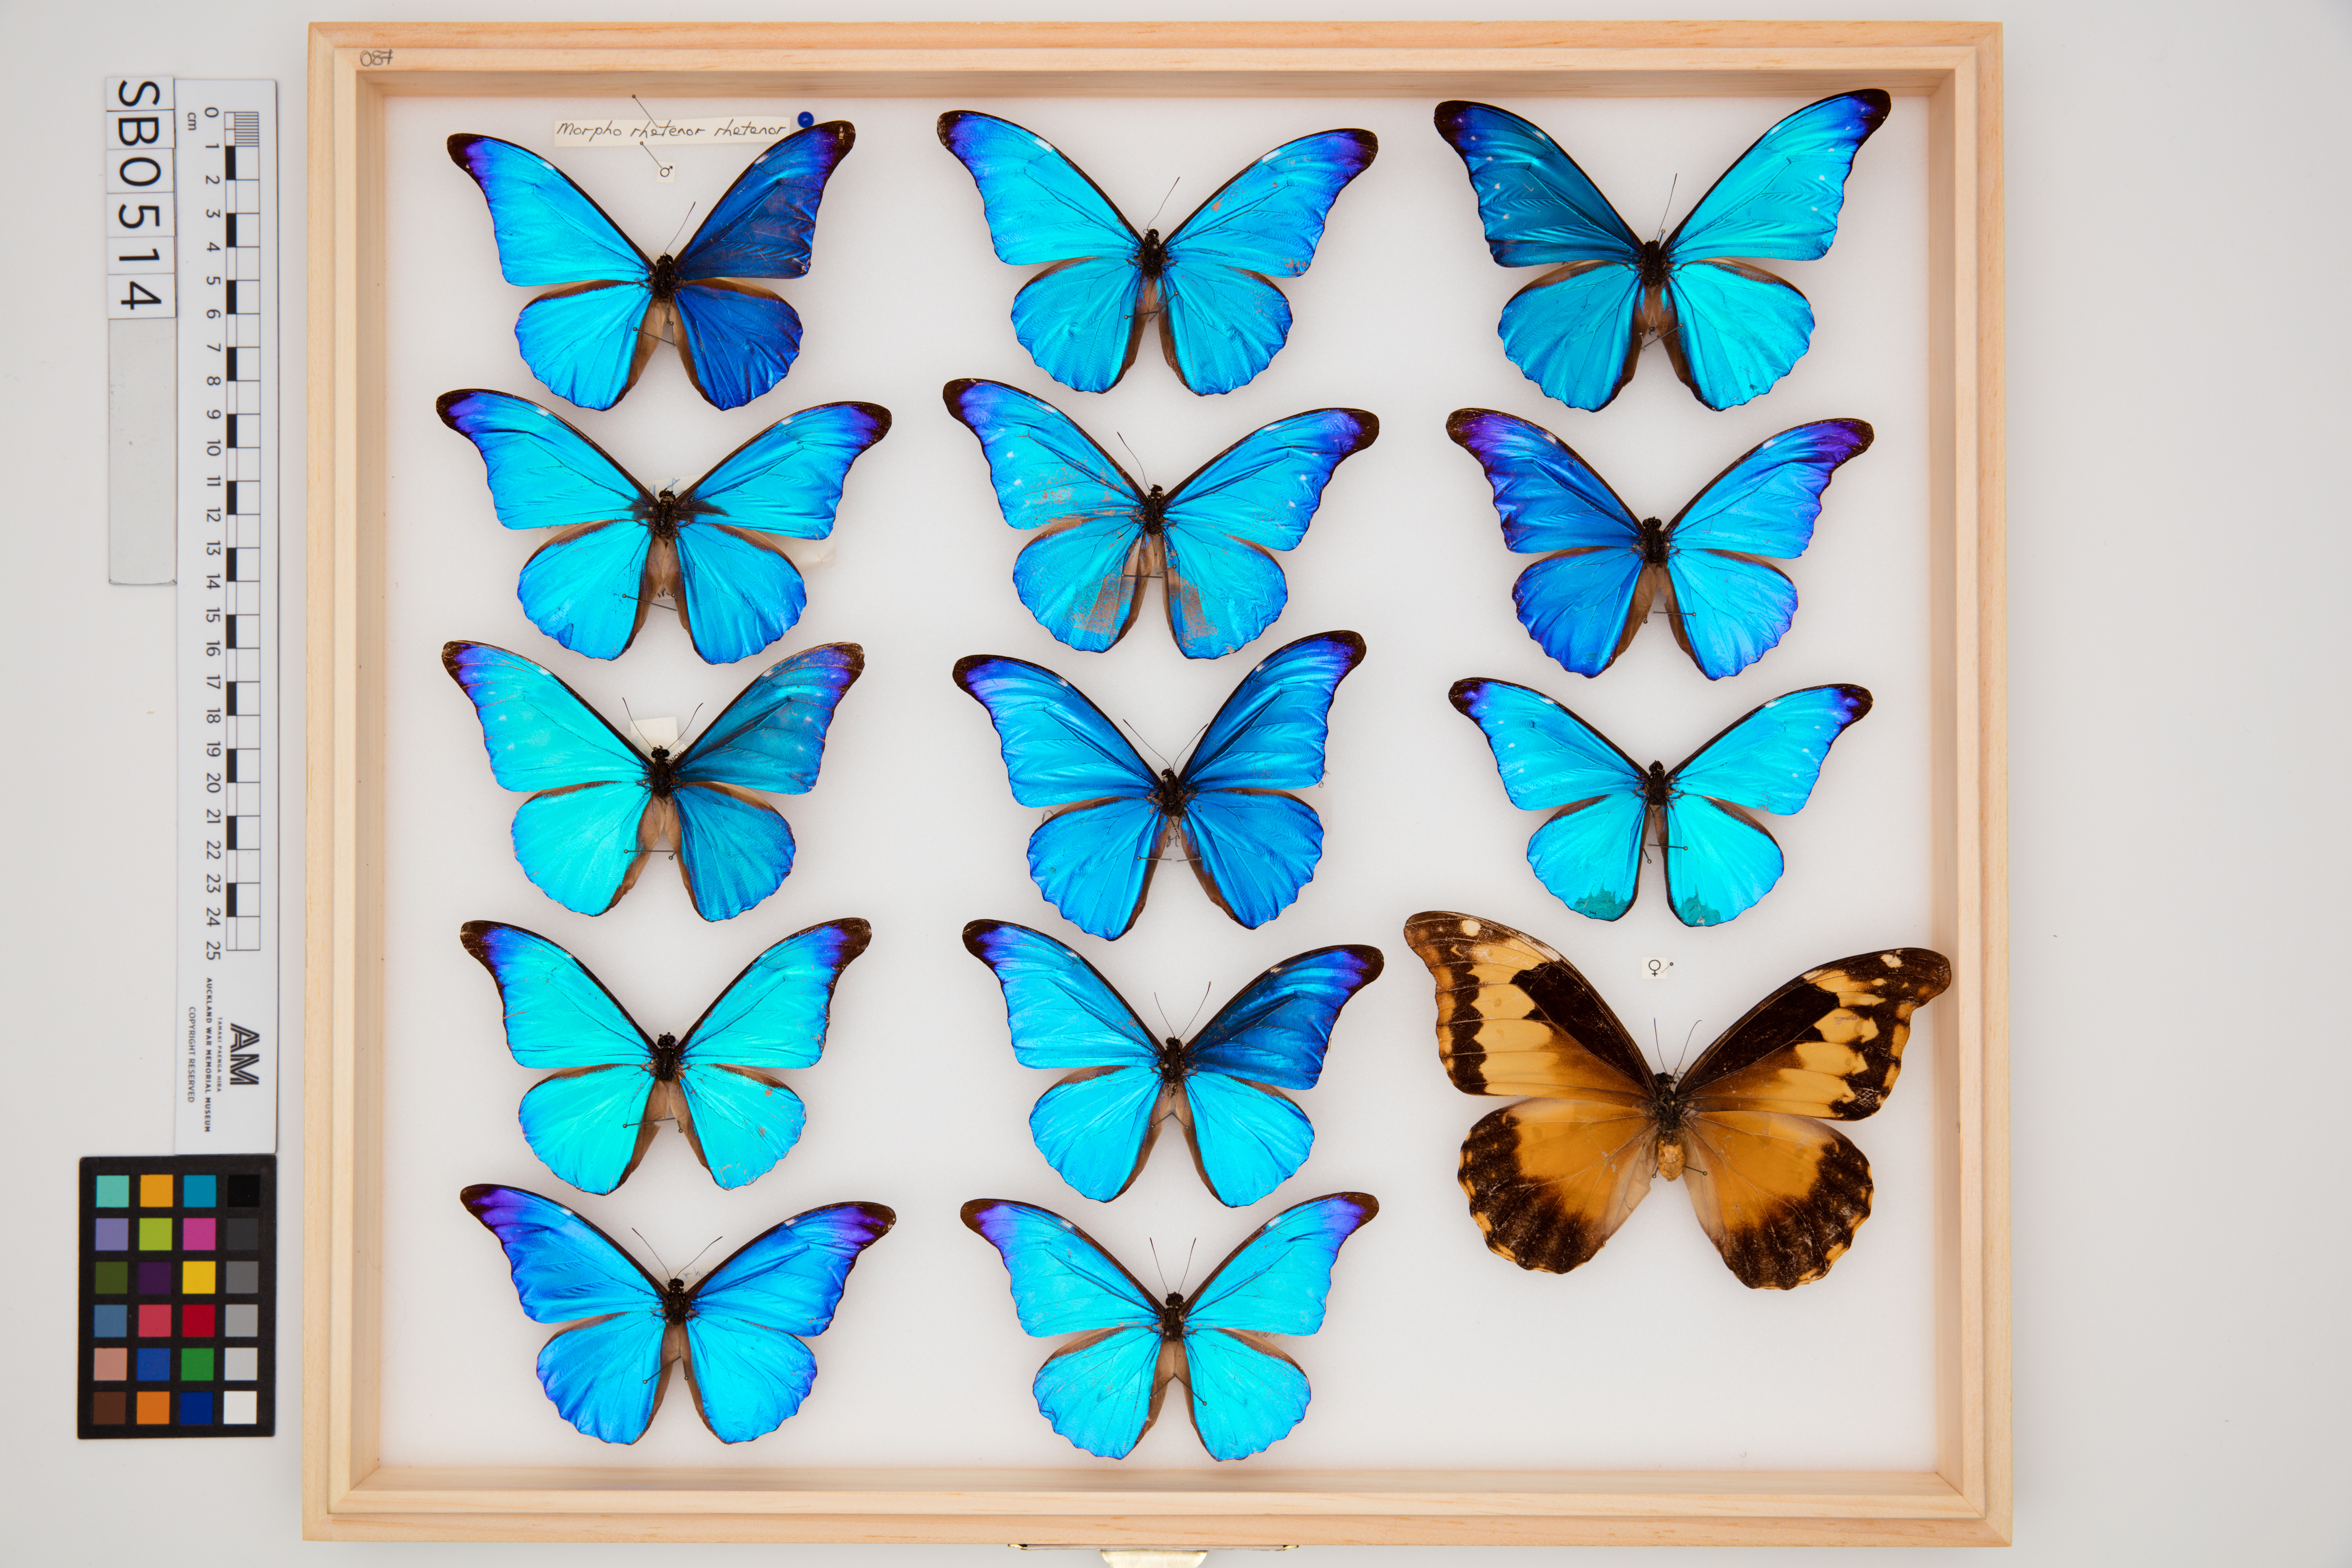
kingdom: Animalia
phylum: Arthropoda
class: Insecta
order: Lepidoptera
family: Nymphalidae
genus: Morpho
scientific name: Morpho rhetenor
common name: Rhetenor blue morpho
